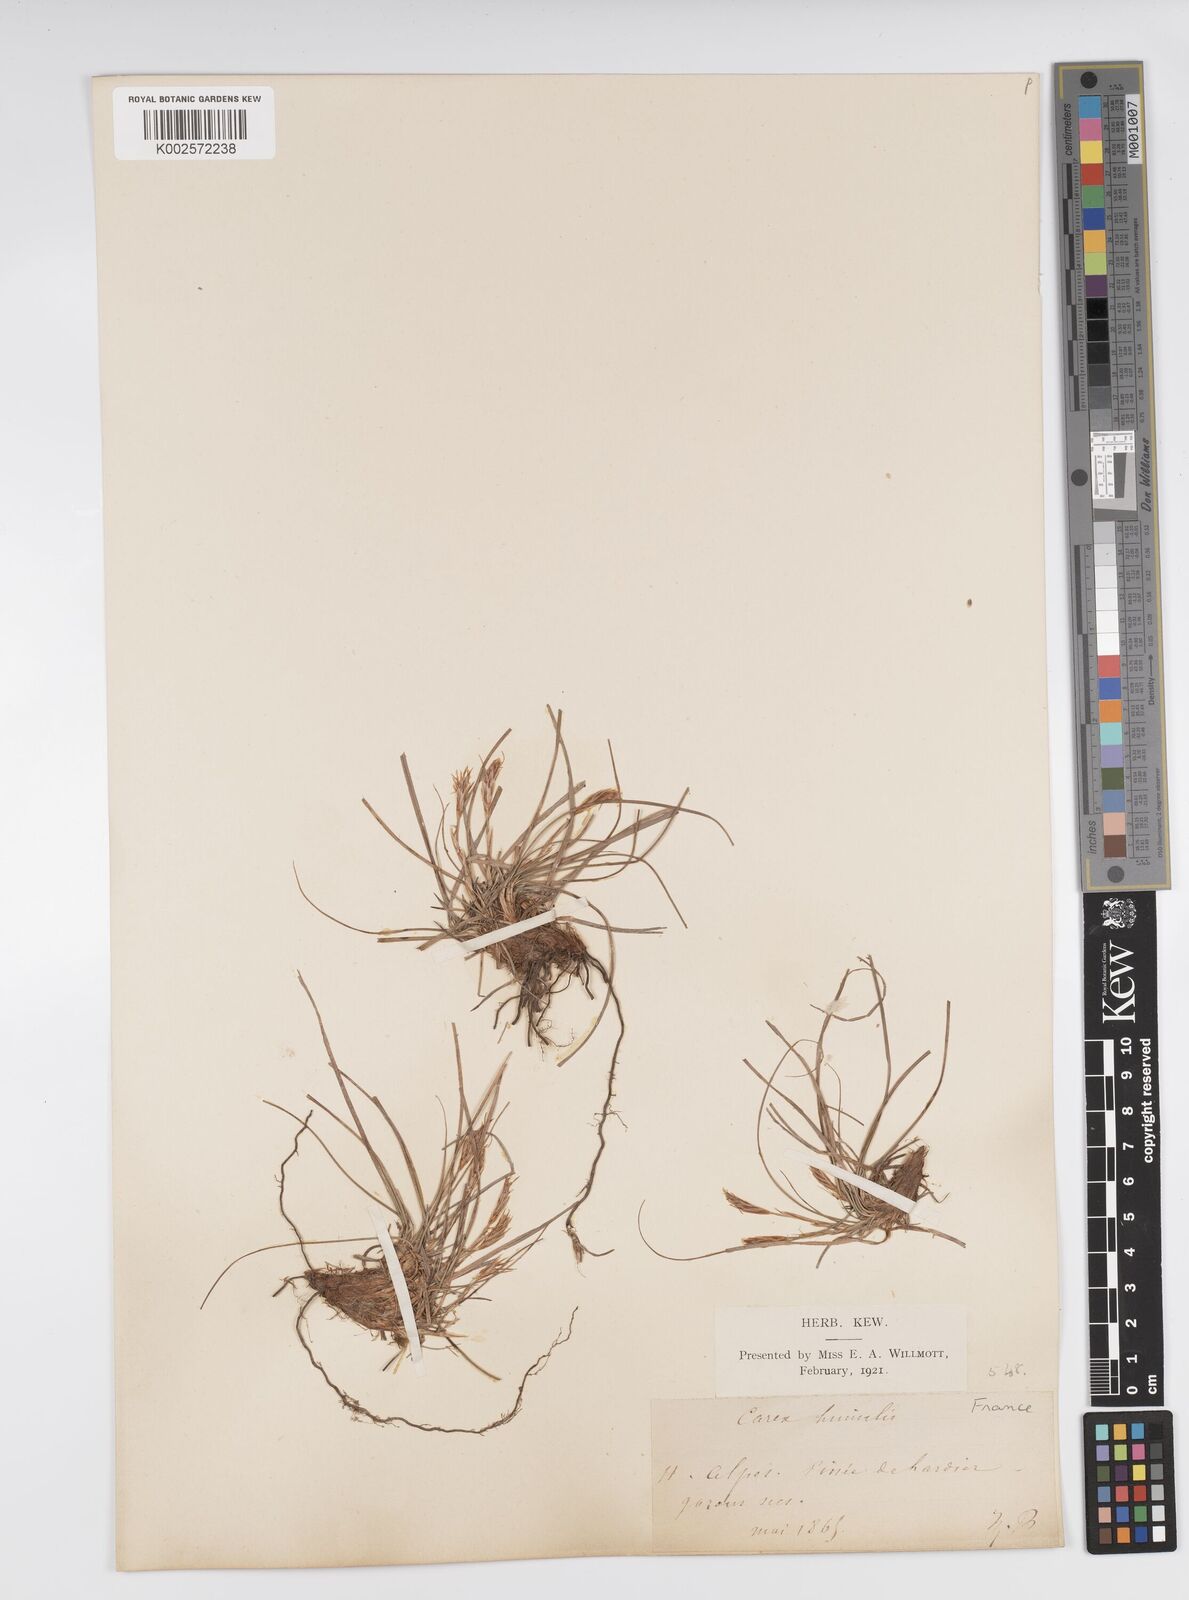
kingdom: Plantae
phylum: Tracheophyta
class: Liliopsida
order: Poales
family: Cyperaceae
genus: Carex
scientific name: Carex humilis
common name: Dwarf sedge
